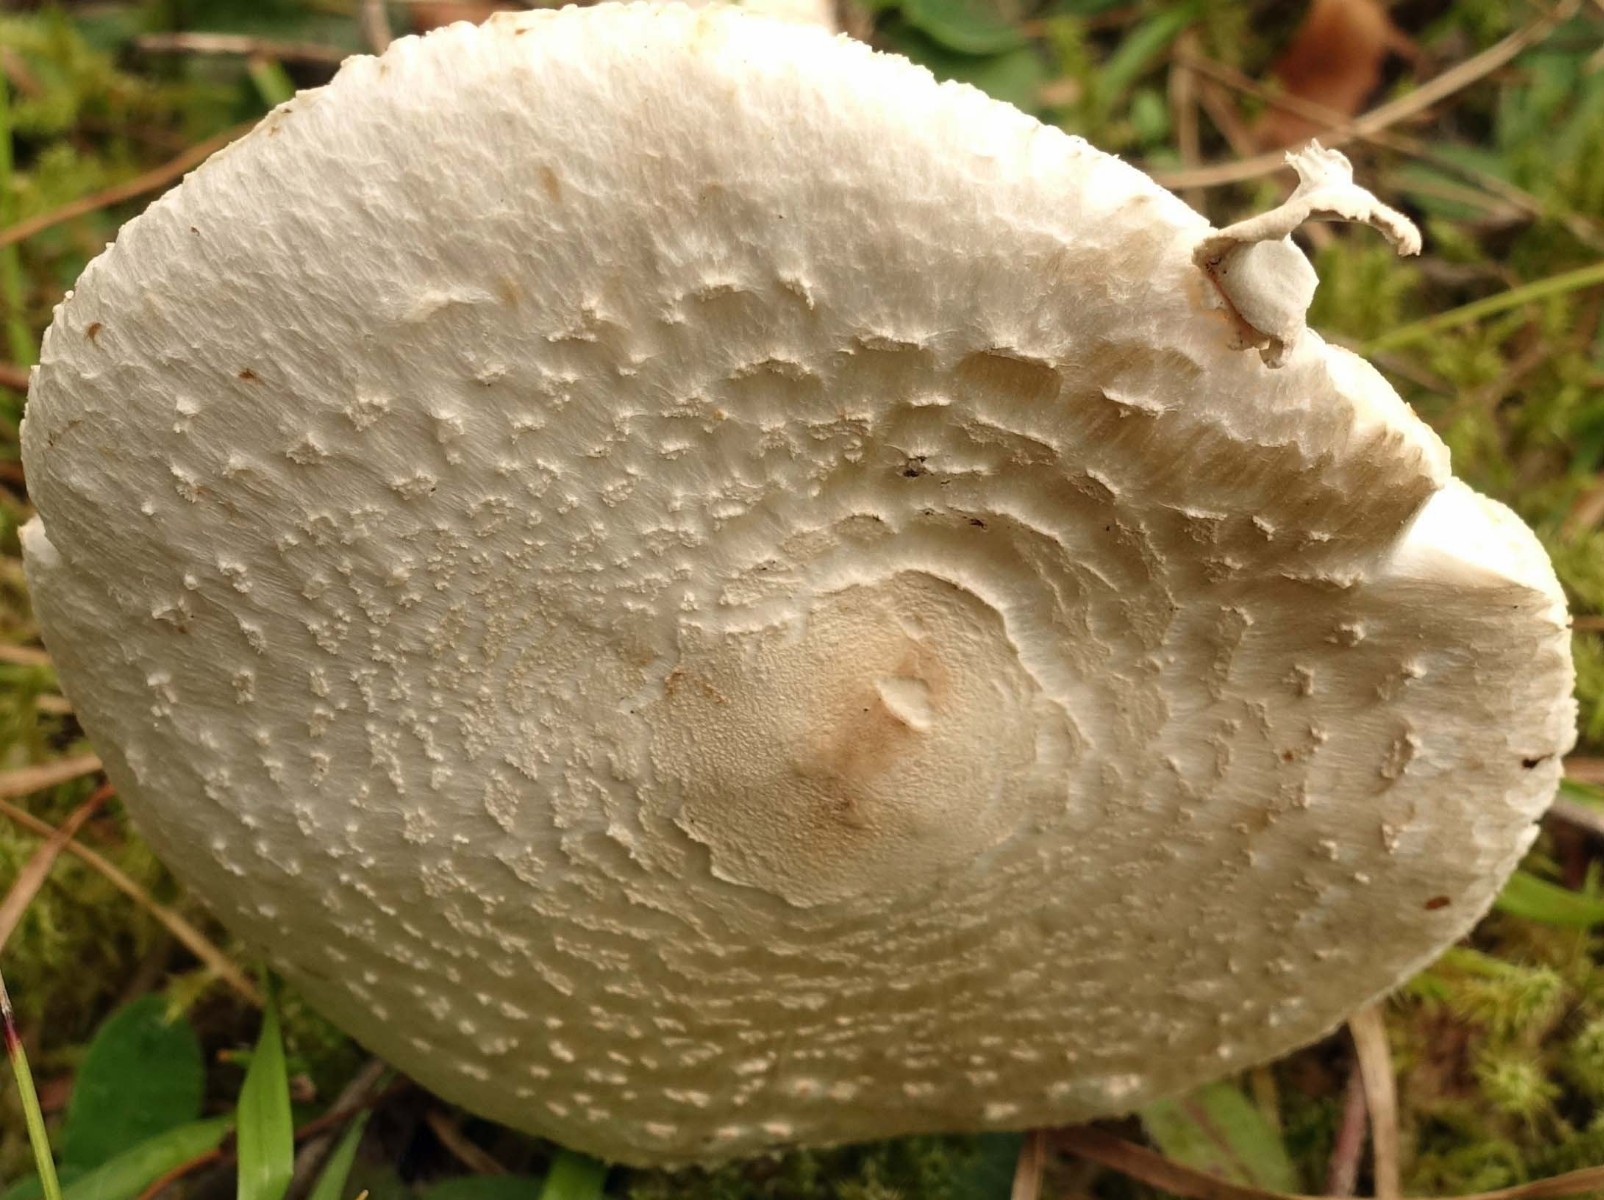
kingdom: Fungi
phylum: Basidiomycota
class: Agaricomycetes
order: Agaricales
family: Agaricaceae
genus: Macrolepiota
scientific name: Macrolepiota excoriata
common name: mark-kæmpeparasolhat
